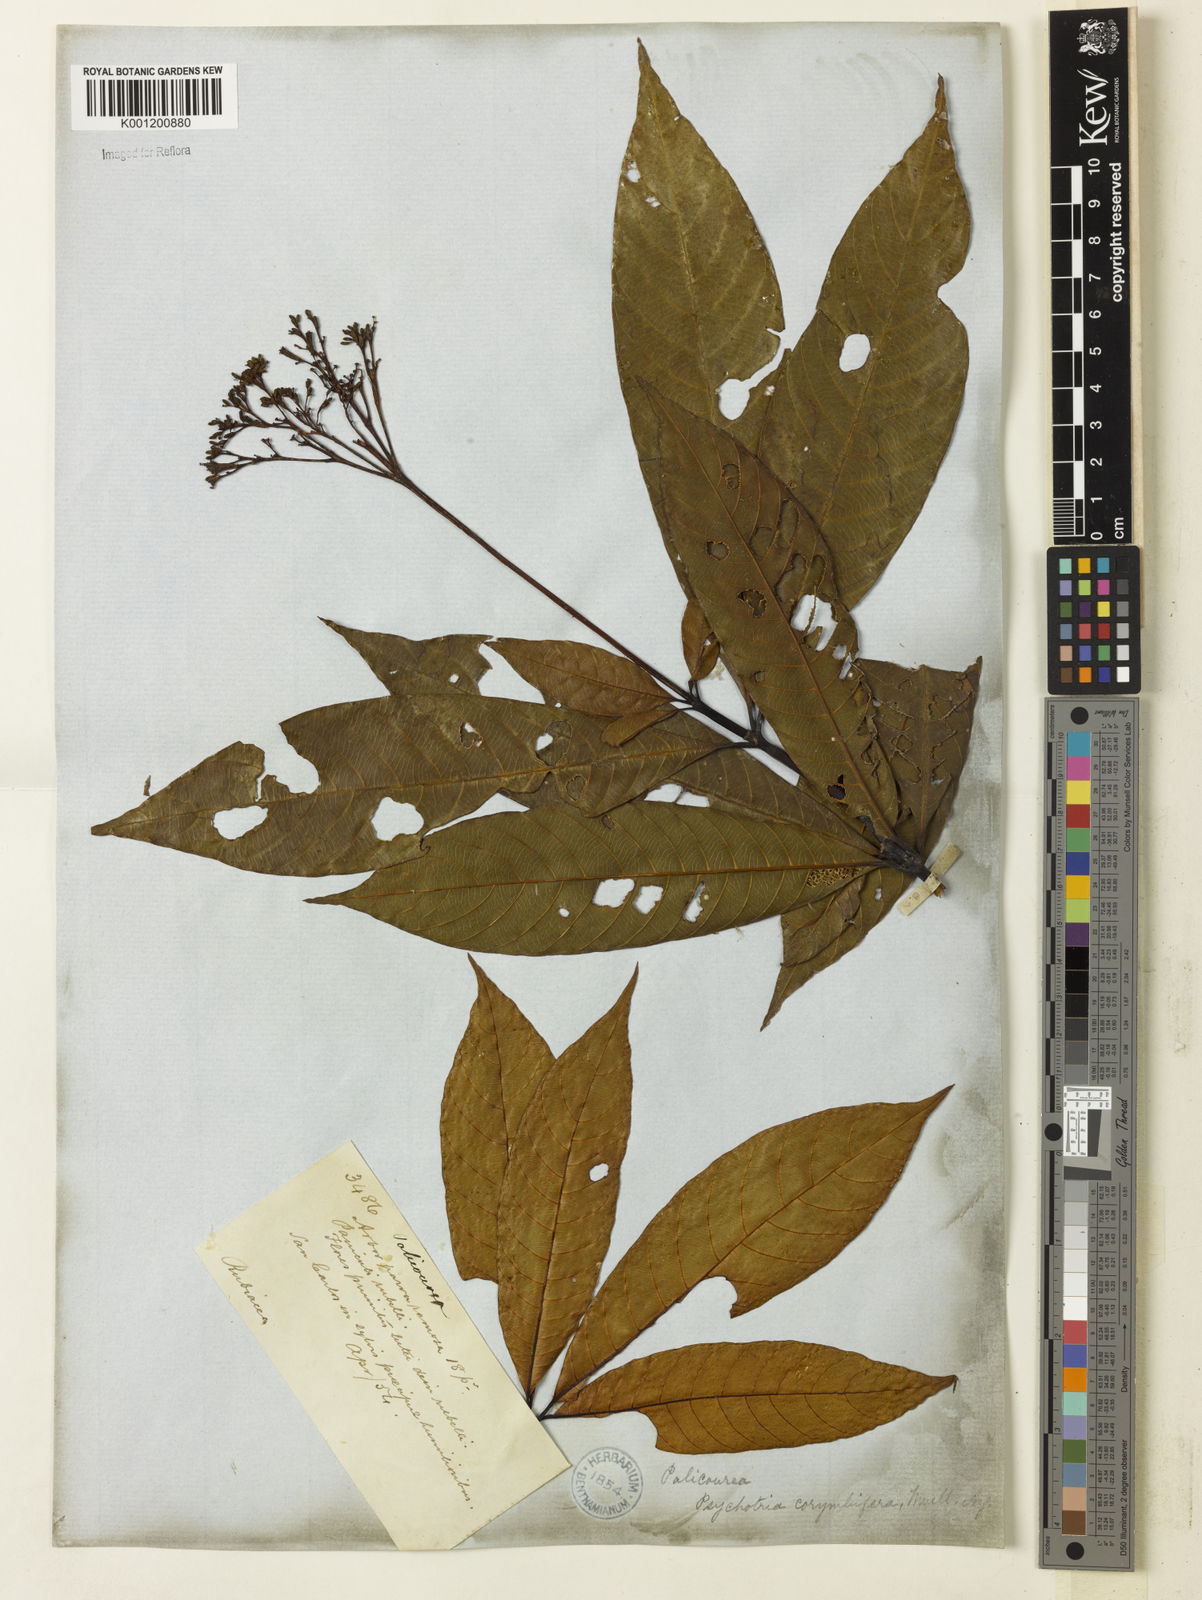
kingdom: Plantae
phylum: Tracheophyta
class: Magnoliopsida
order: Gentianales
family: Rubiaceae
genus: Palicourea
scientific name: Palicourea
